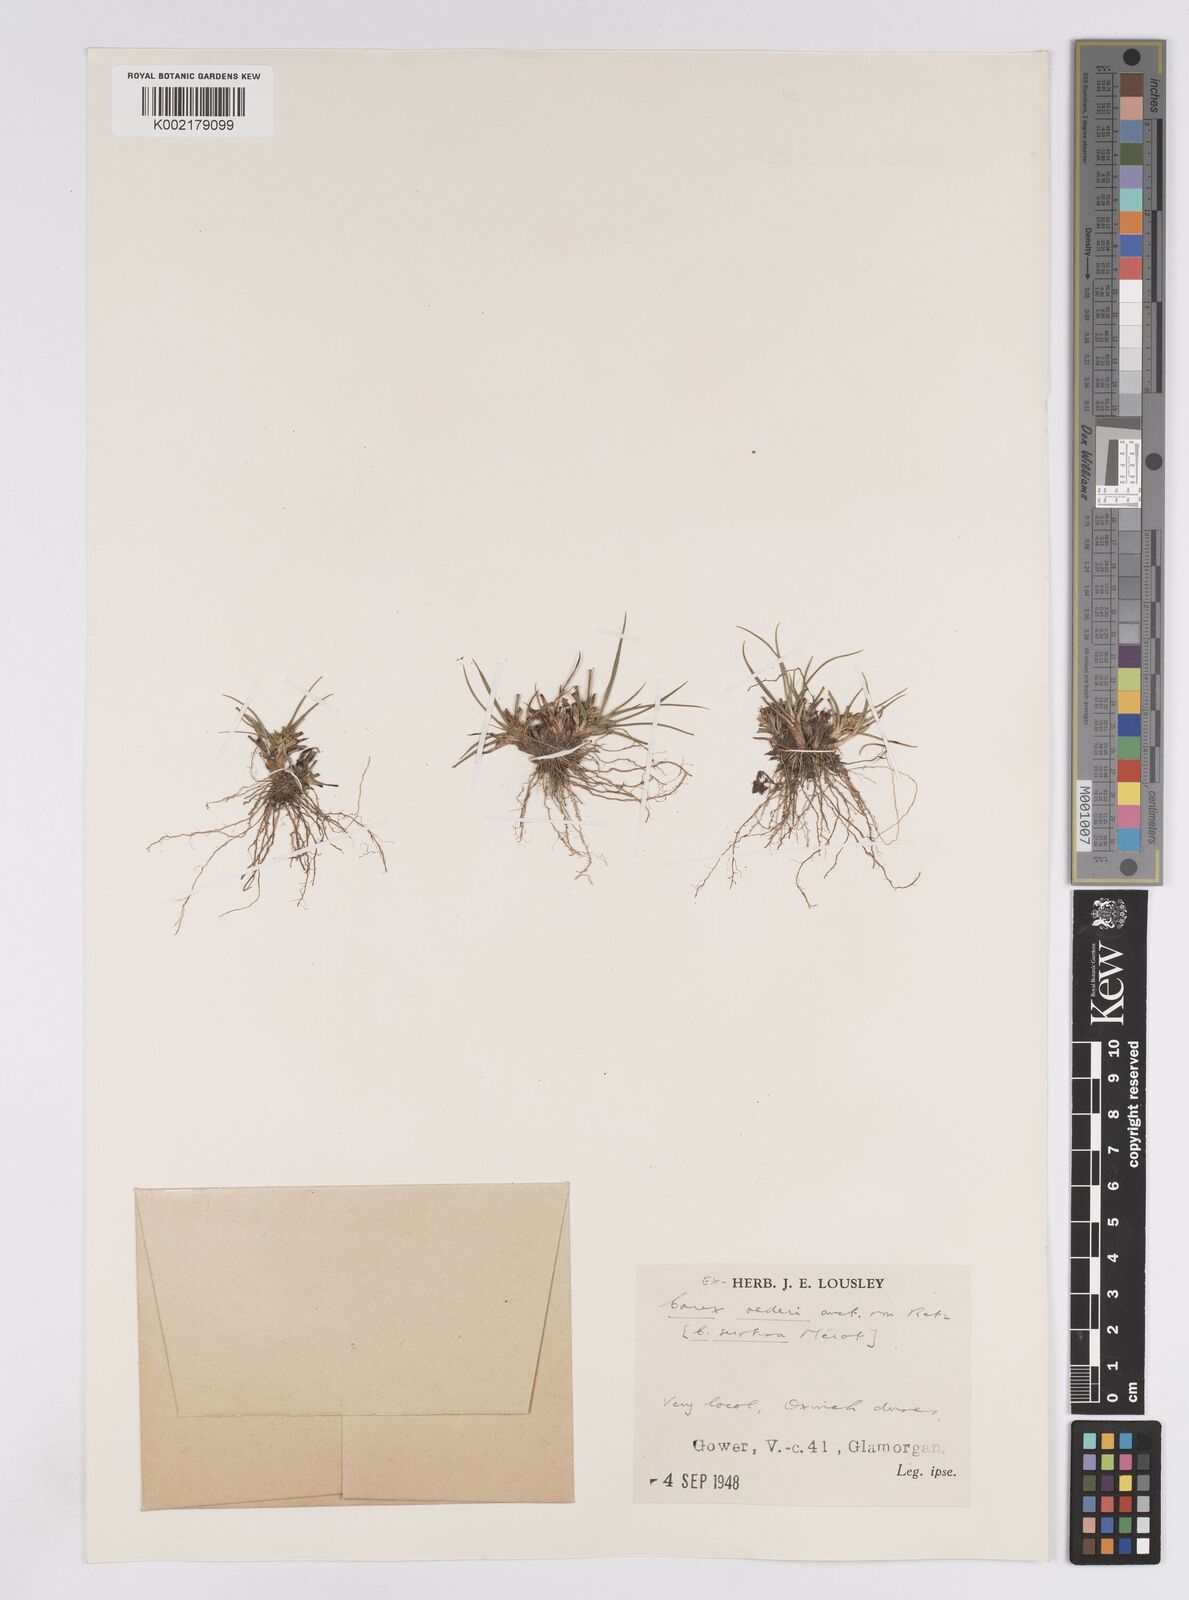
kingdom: Plantae
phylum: Tracheophyta
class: Liliopsida
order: Poales
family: Cyperaceae
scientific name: Cyperaceae
